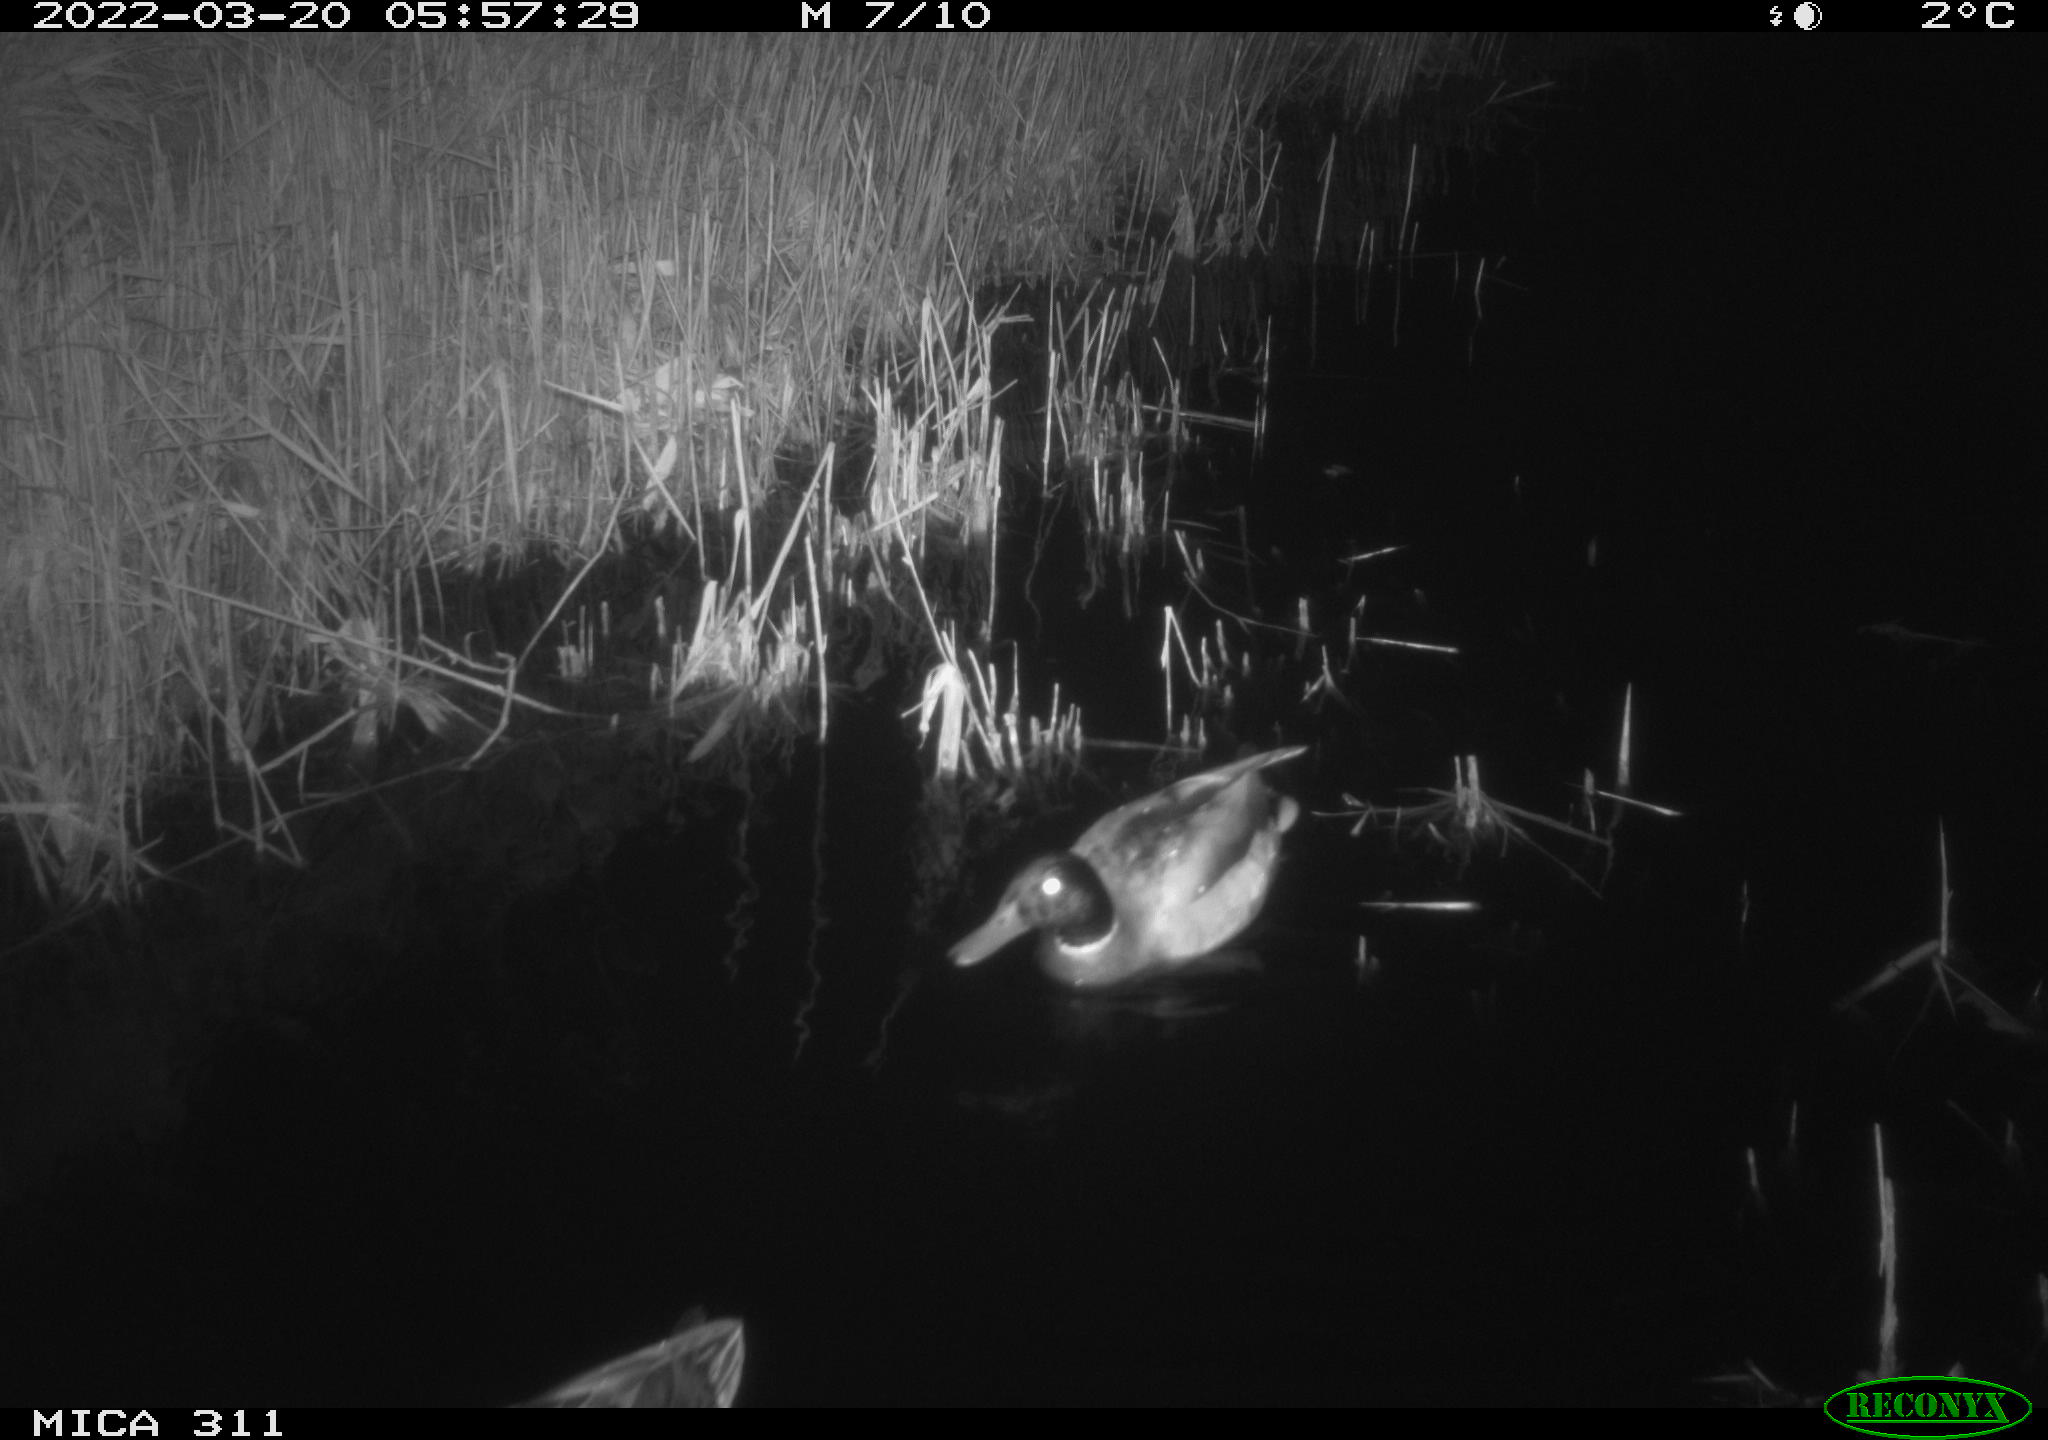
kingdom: Animalia
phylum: Chordata
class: Aves
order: Anseriformes
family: Anatidae
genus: Anas
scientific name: Anas platyrhynchos
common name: Mallard
